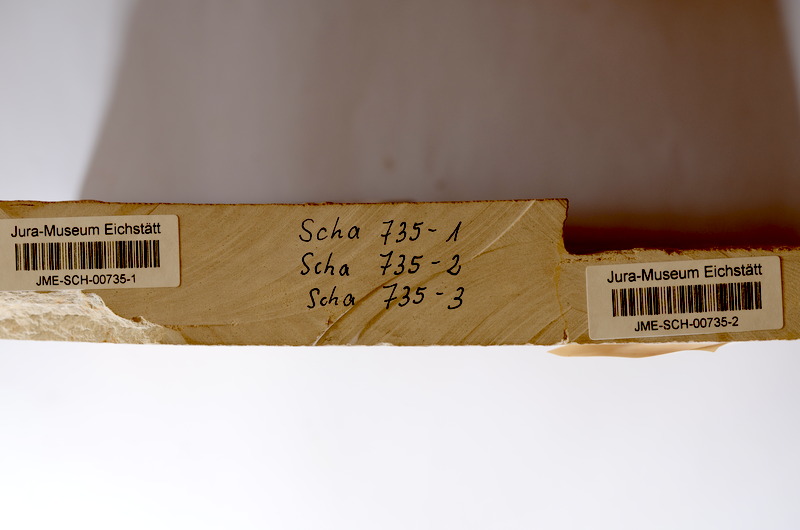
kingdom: Animalia
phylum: Chordata
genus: Altmuehlfuro
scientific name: Altmuehlfuro boomerang
